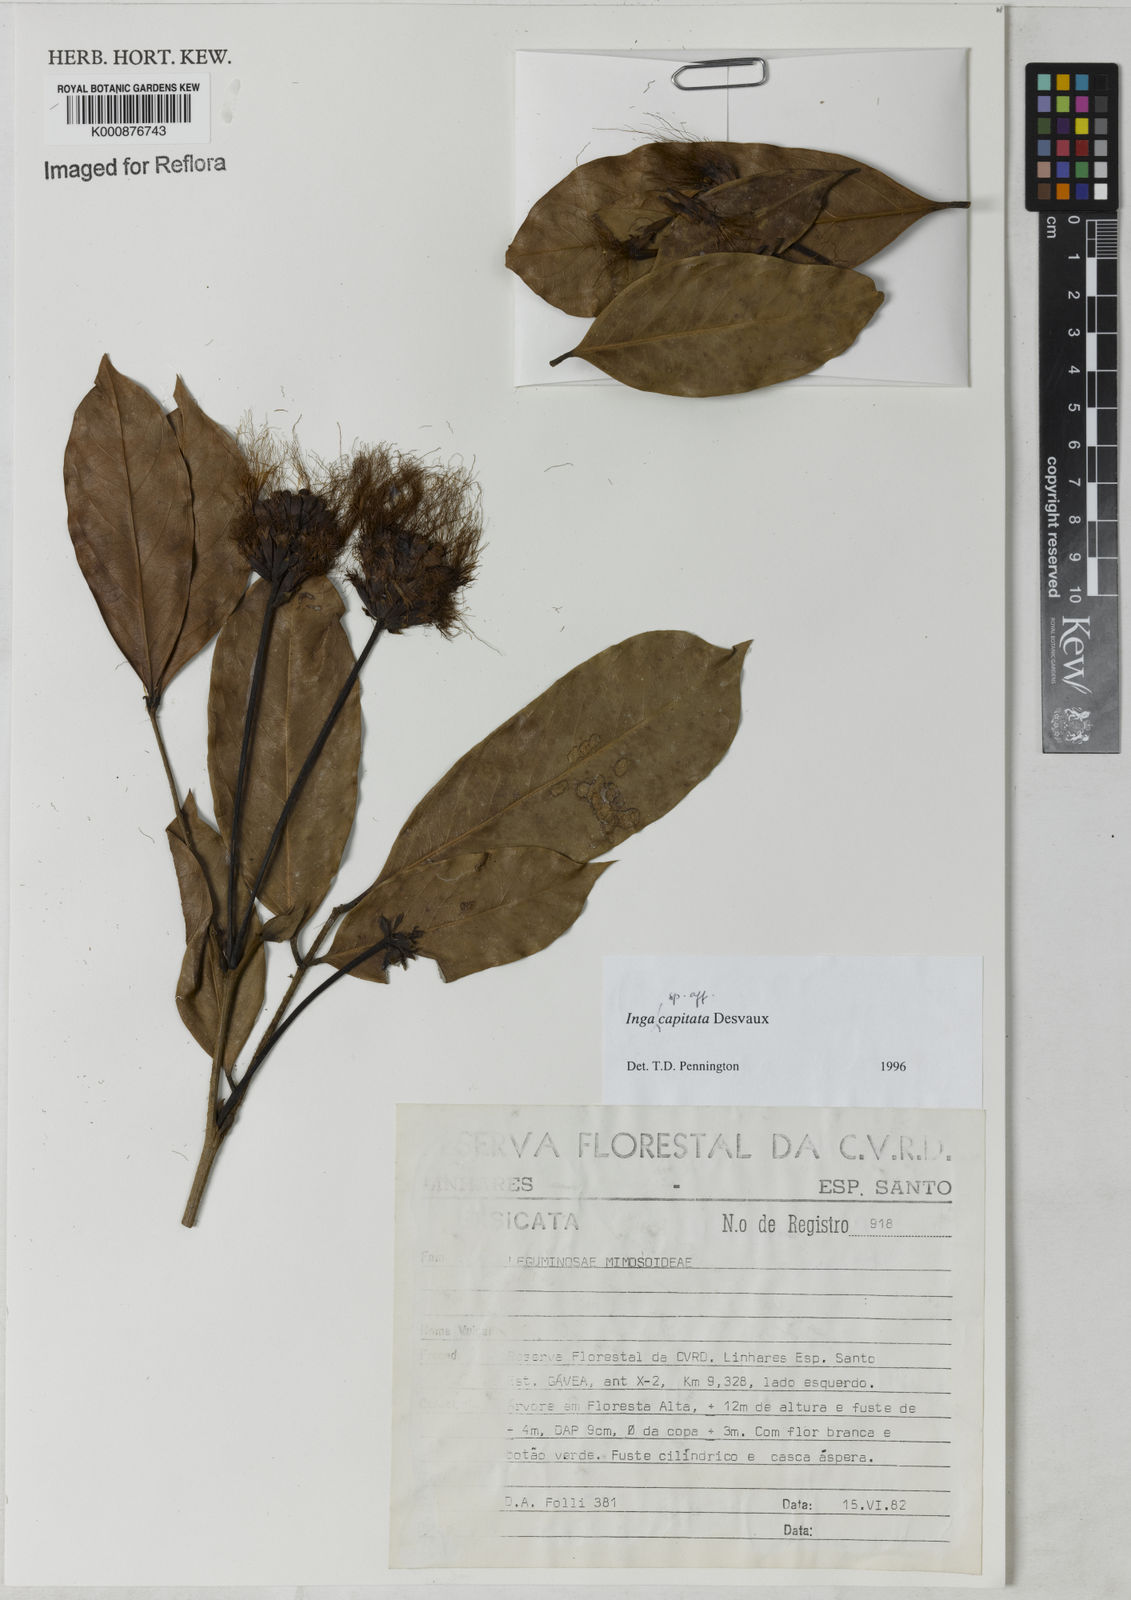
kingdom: Plantae
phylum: Tracheophyta
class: Magnoliopsida
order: Fabales
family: Fabaceae
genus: Inga
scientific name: Inga capitata
